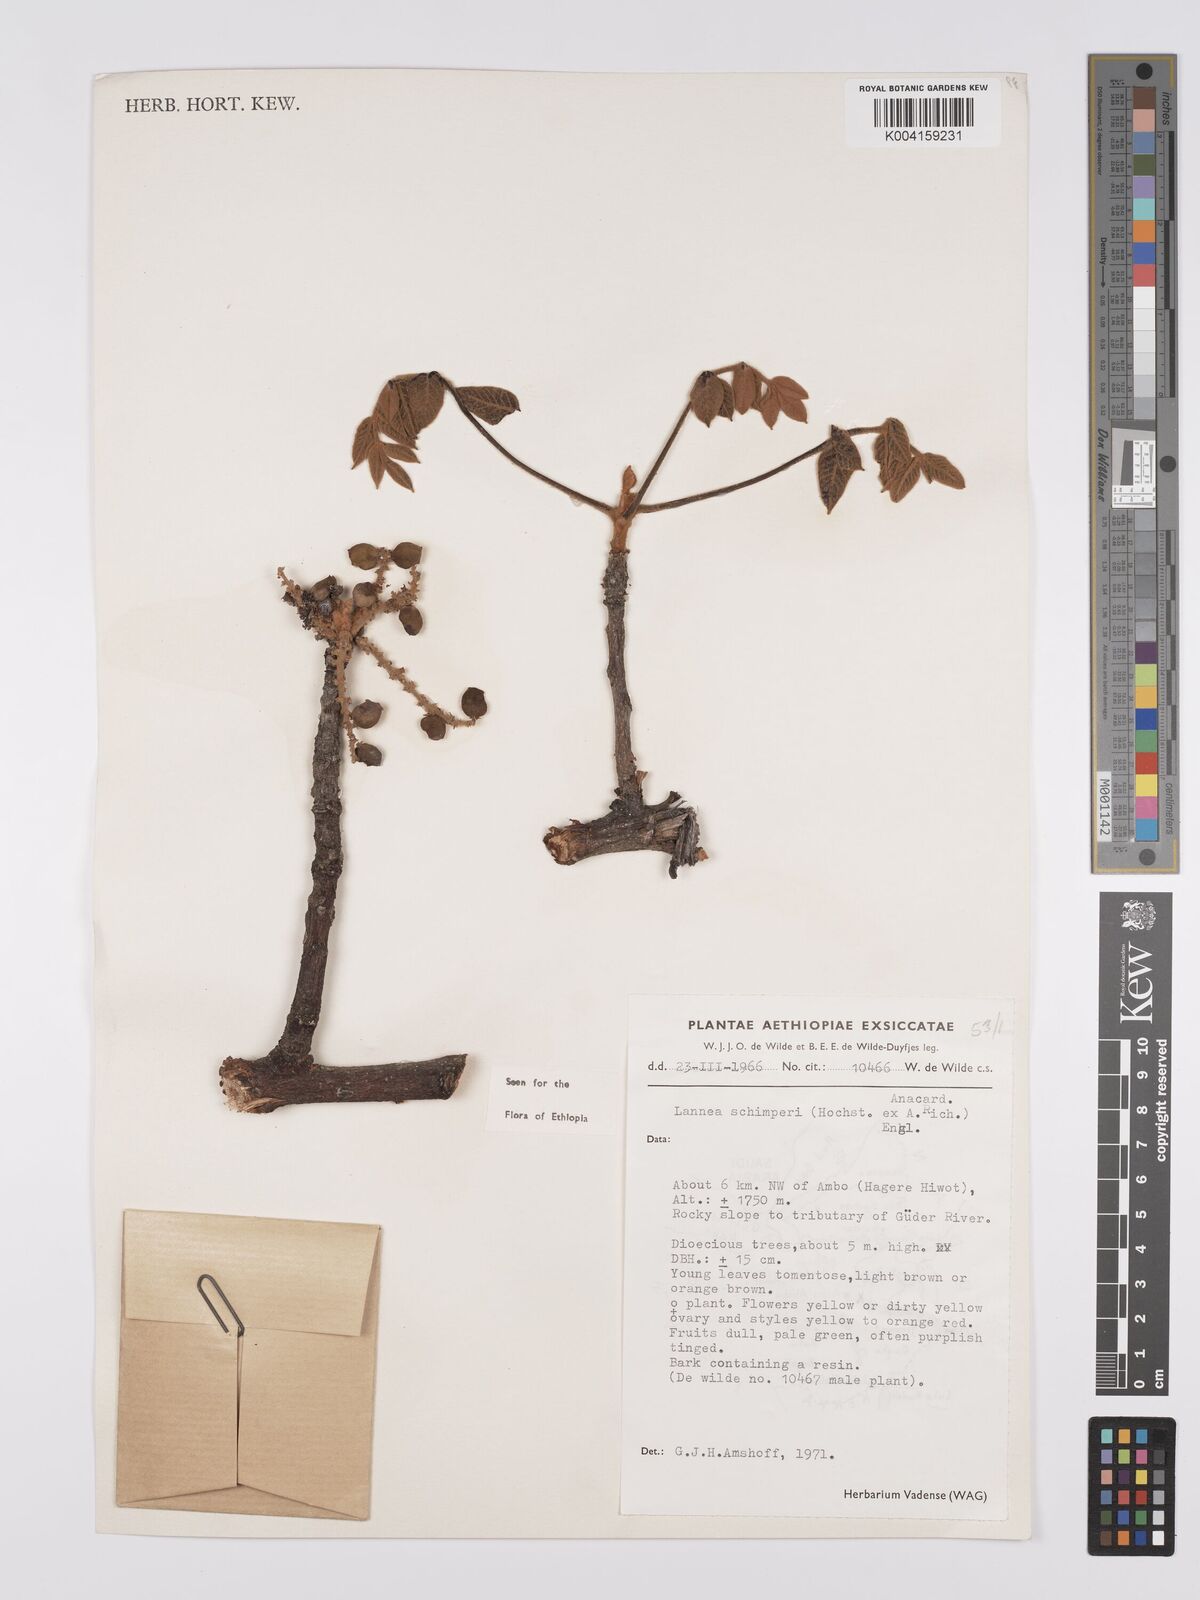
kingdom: Plantae
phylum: Tracheophyta
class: Magnoliopsida
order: Sapindales
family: Anacardiaceae
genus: Lannea
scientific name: Lannea schimperi
